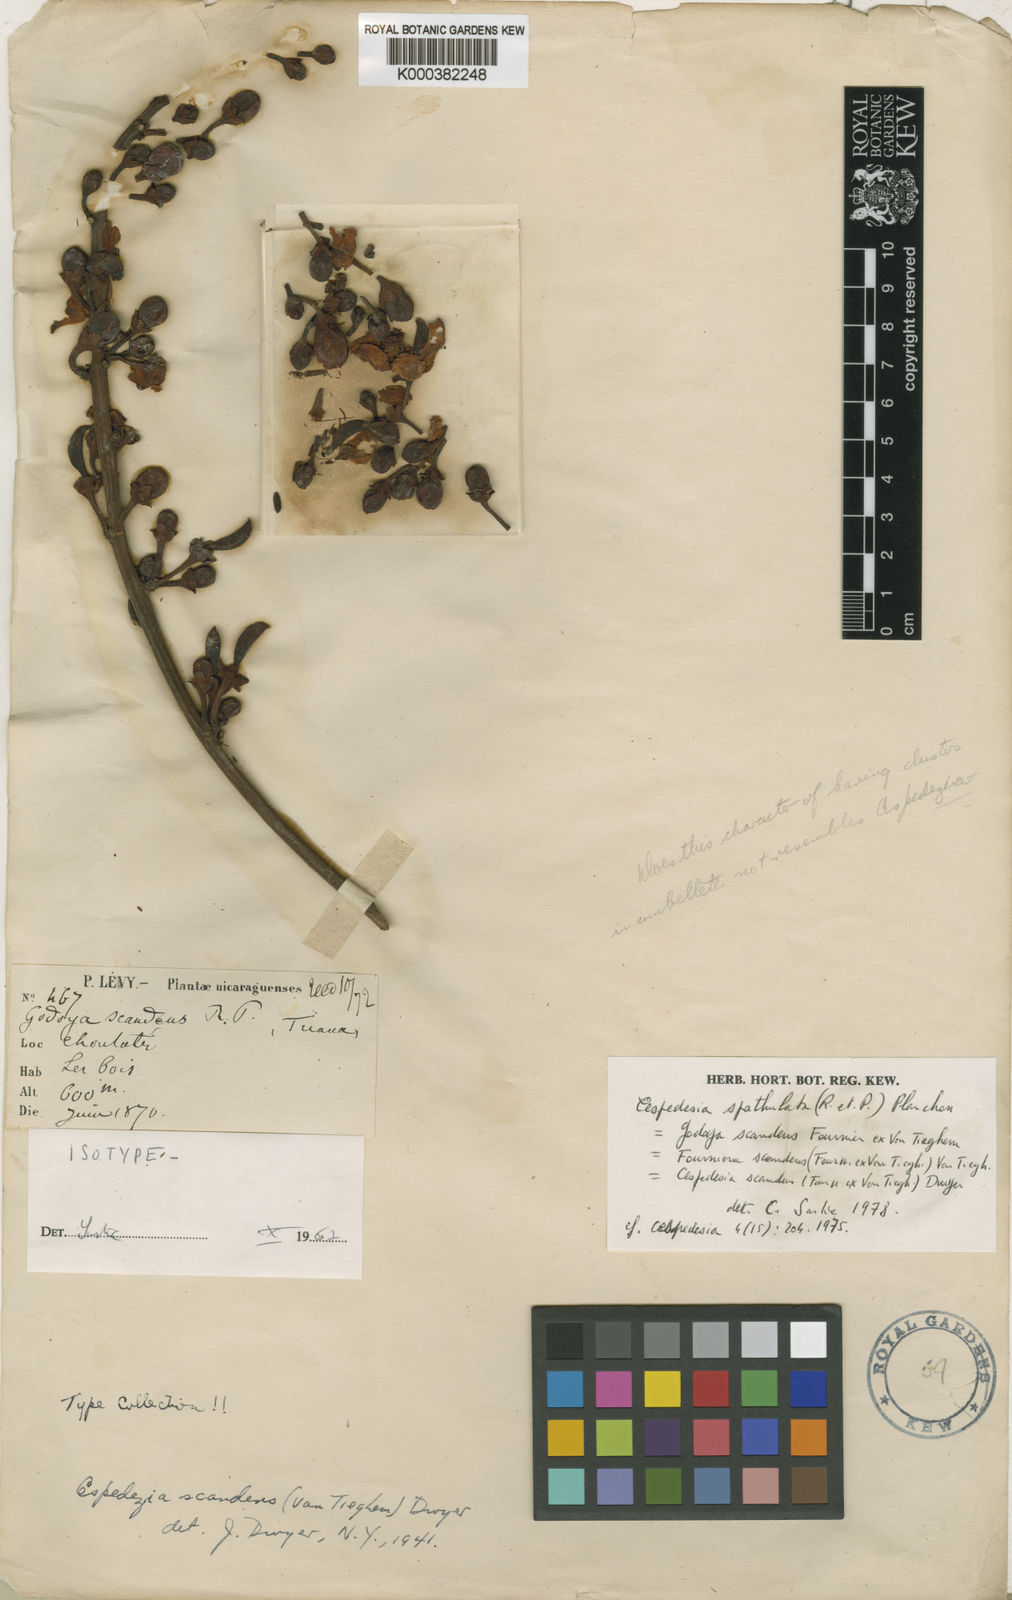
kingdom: Plantae
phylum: Tracheophyta
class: Magnoliopsida
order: Malpighiales
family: Ochnaceae
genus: Cespedesia
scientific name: Cespedesia spathulata
